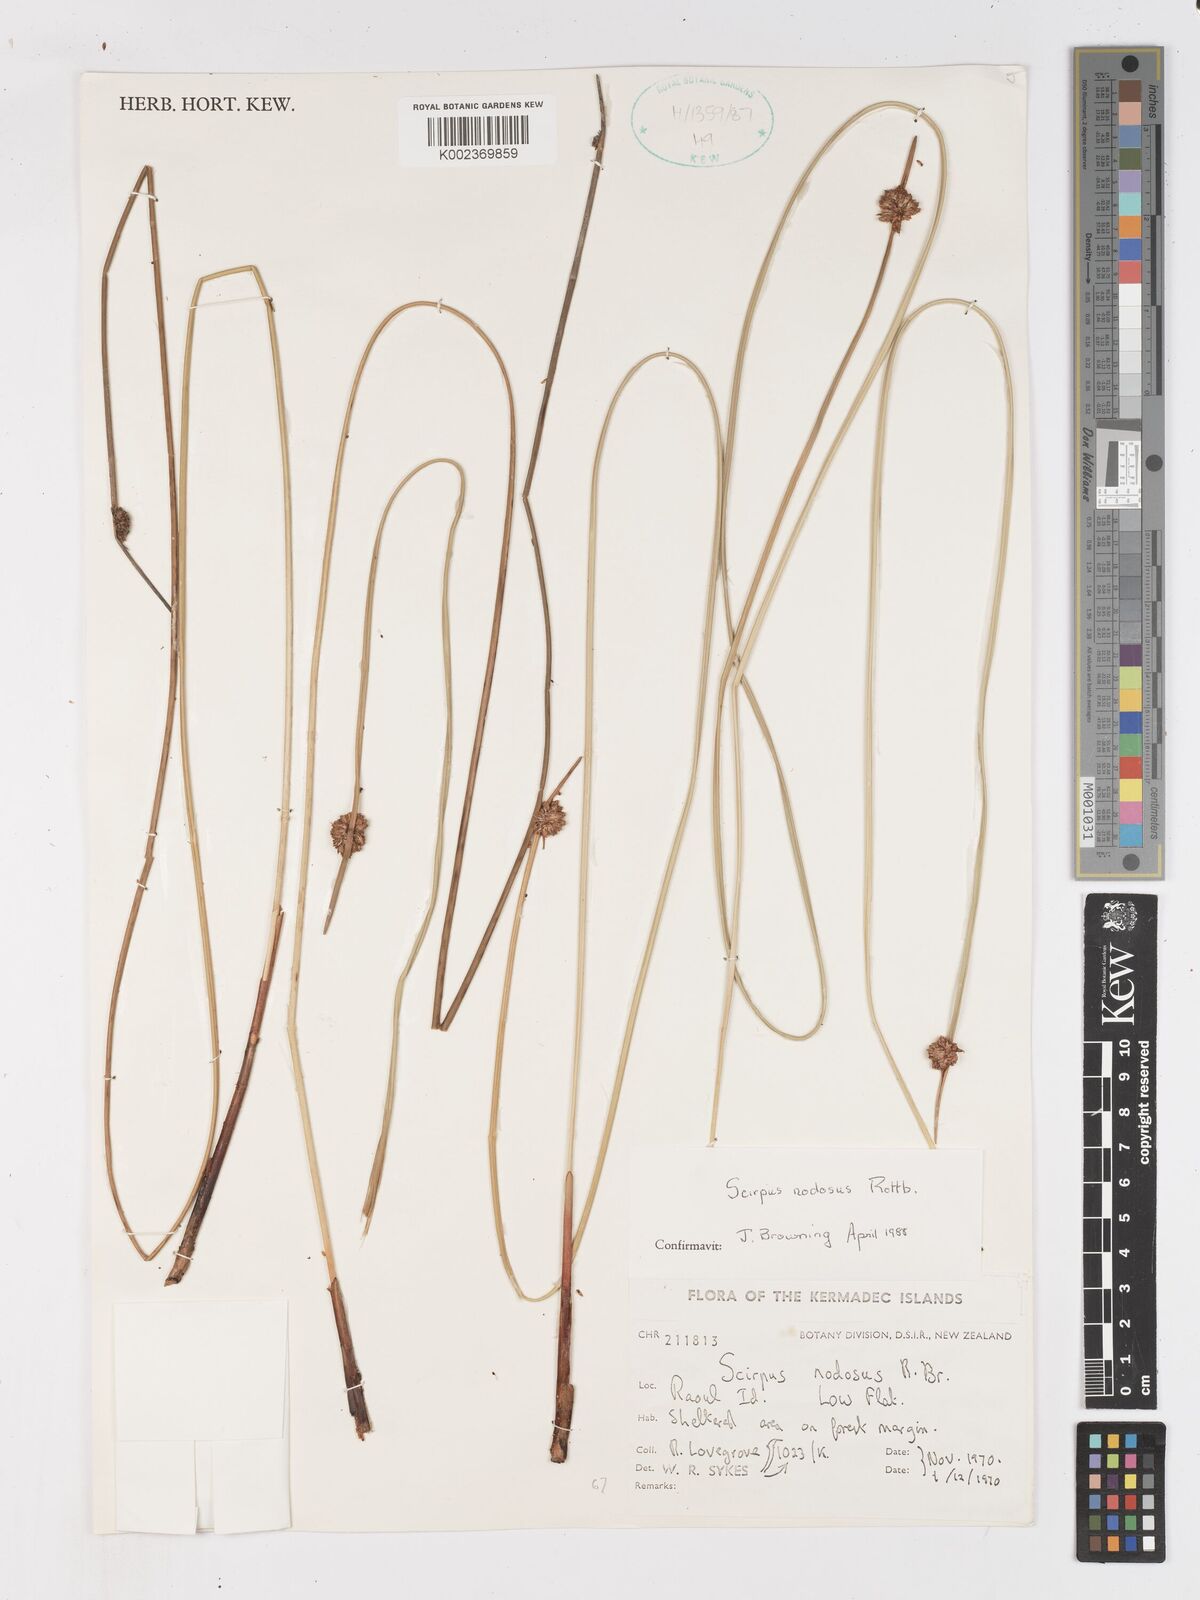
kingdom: Plantae
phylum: Tracheophyta
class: Liliopsida
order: Poales
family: Cyperaceae
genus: Ficinia
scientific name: Ficinia nodosa
